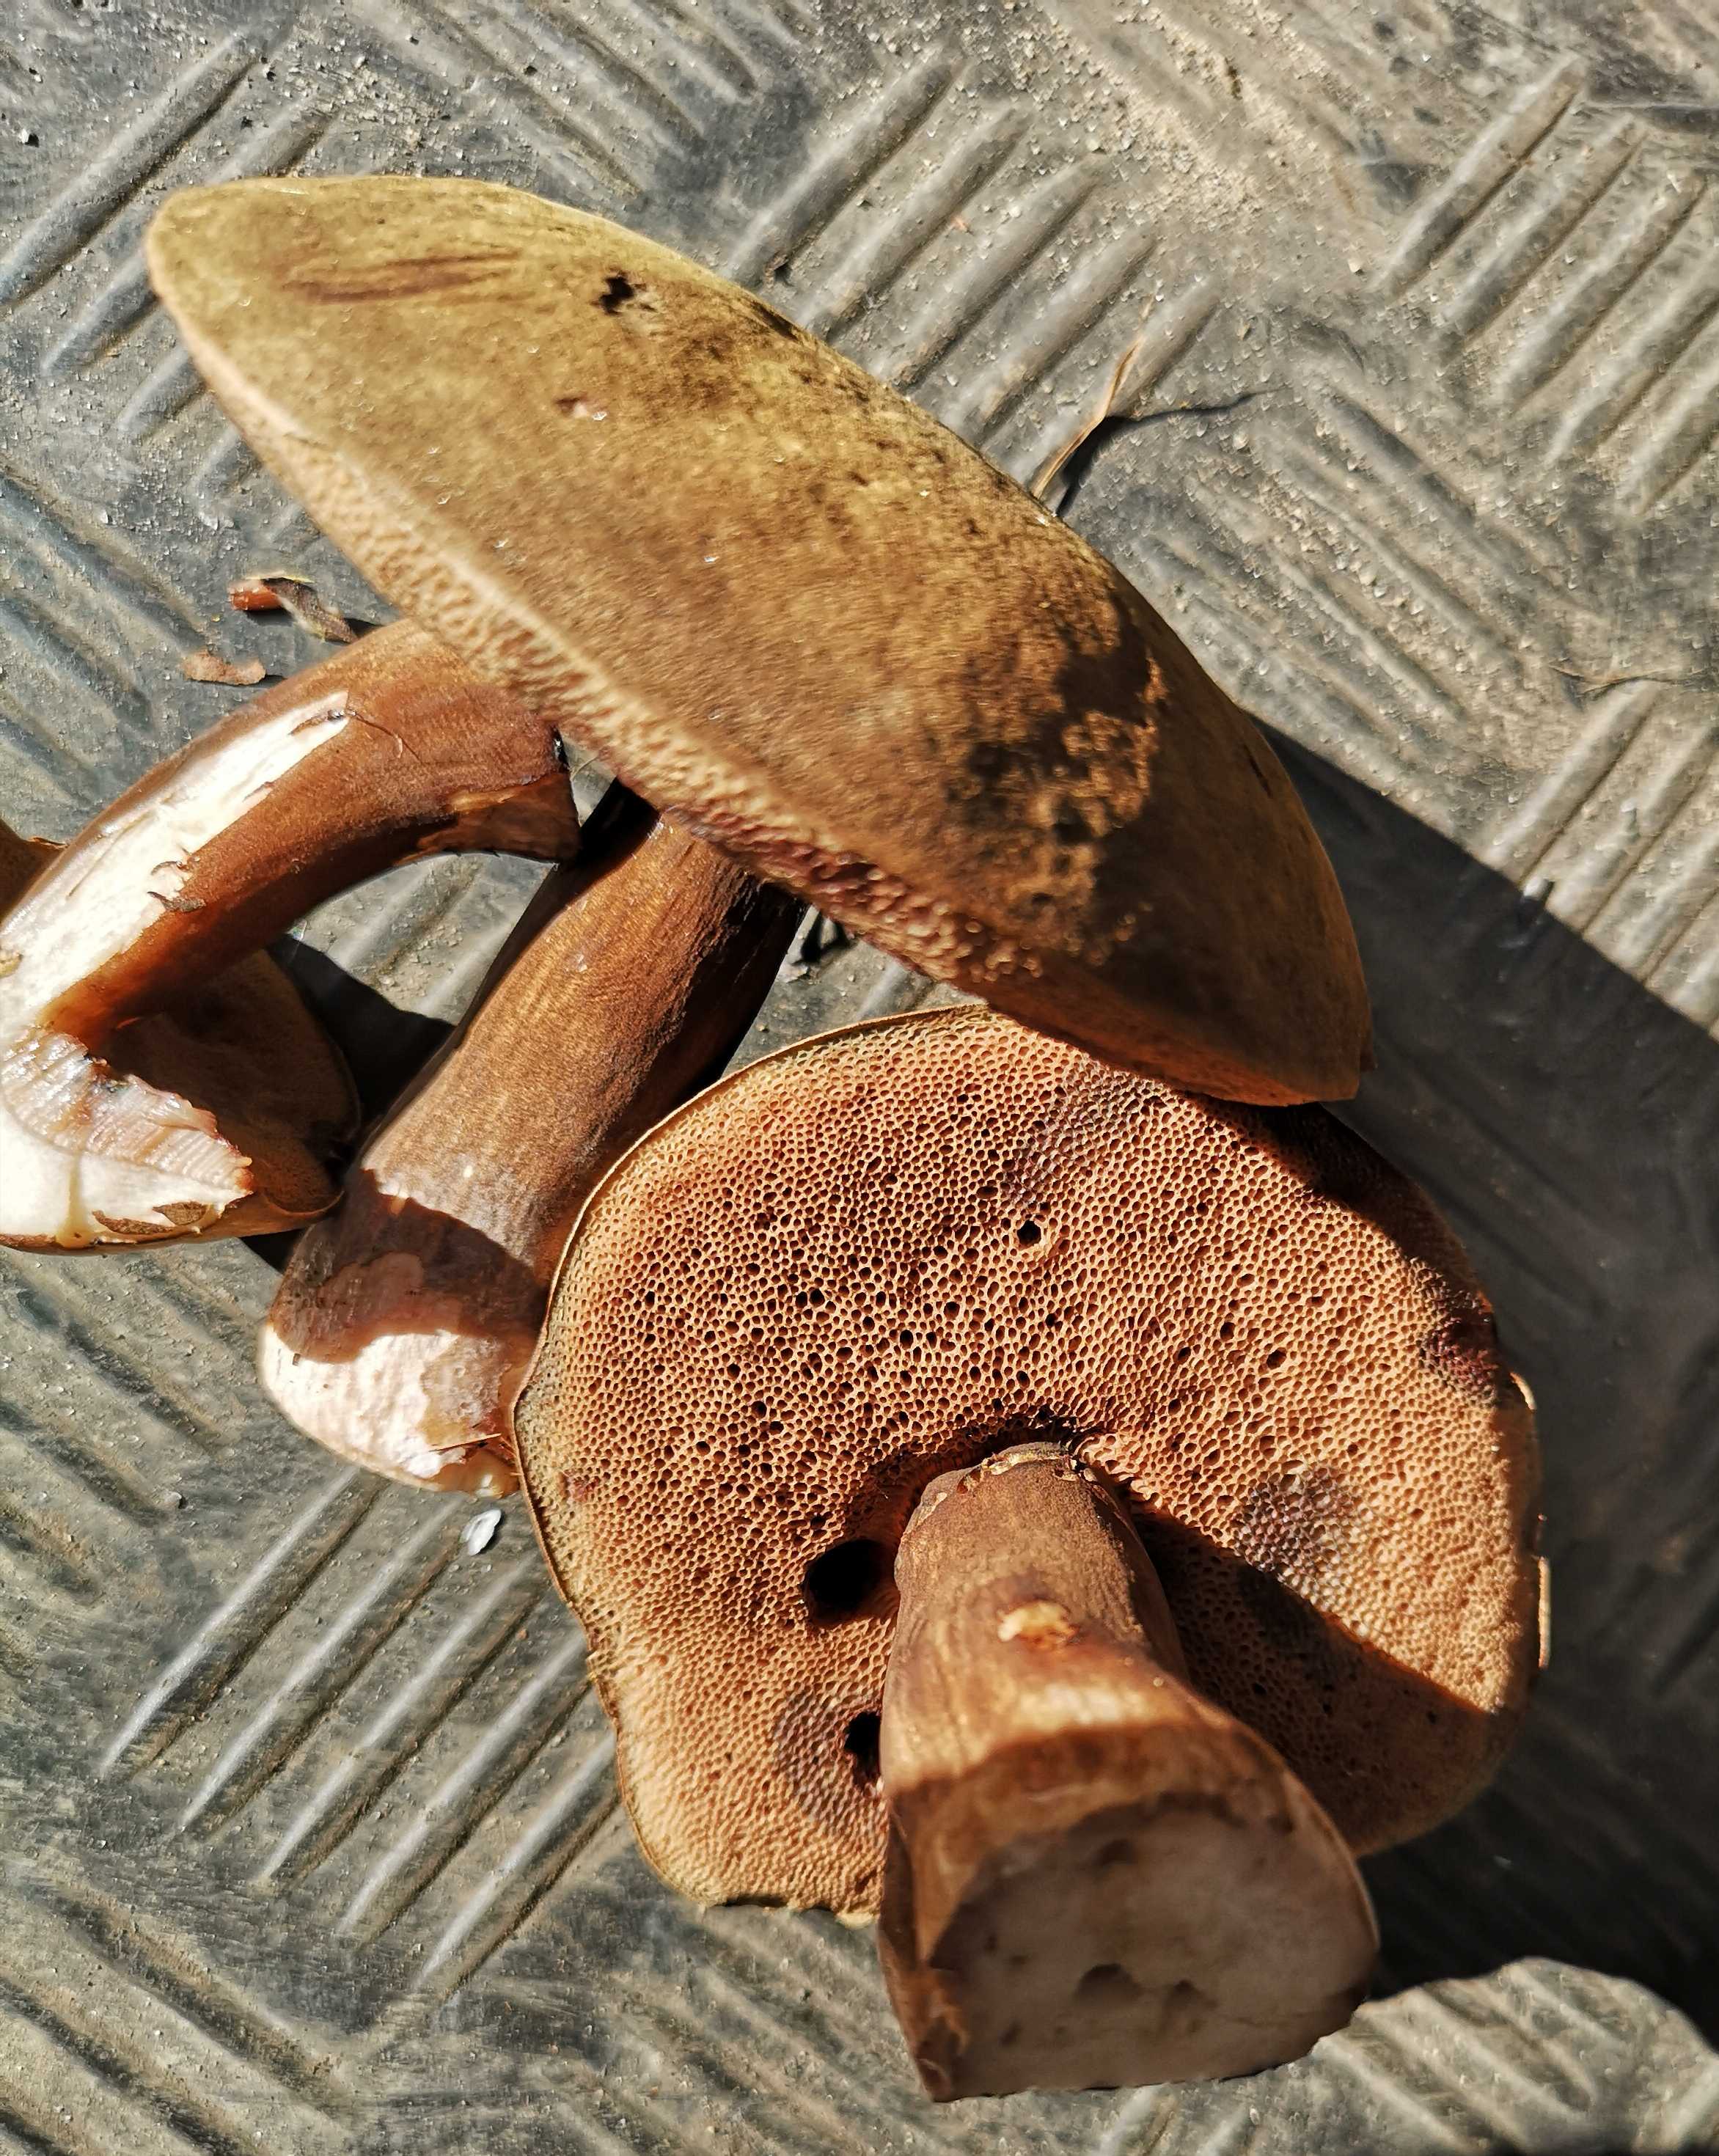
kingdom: Fungi
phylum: Basidiomycota
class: Agaricomycetes
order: Boletales
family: Boletaceae
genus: Porphyrellus
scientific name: Porphyrellus porphyrosporus
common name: sodrørhat
